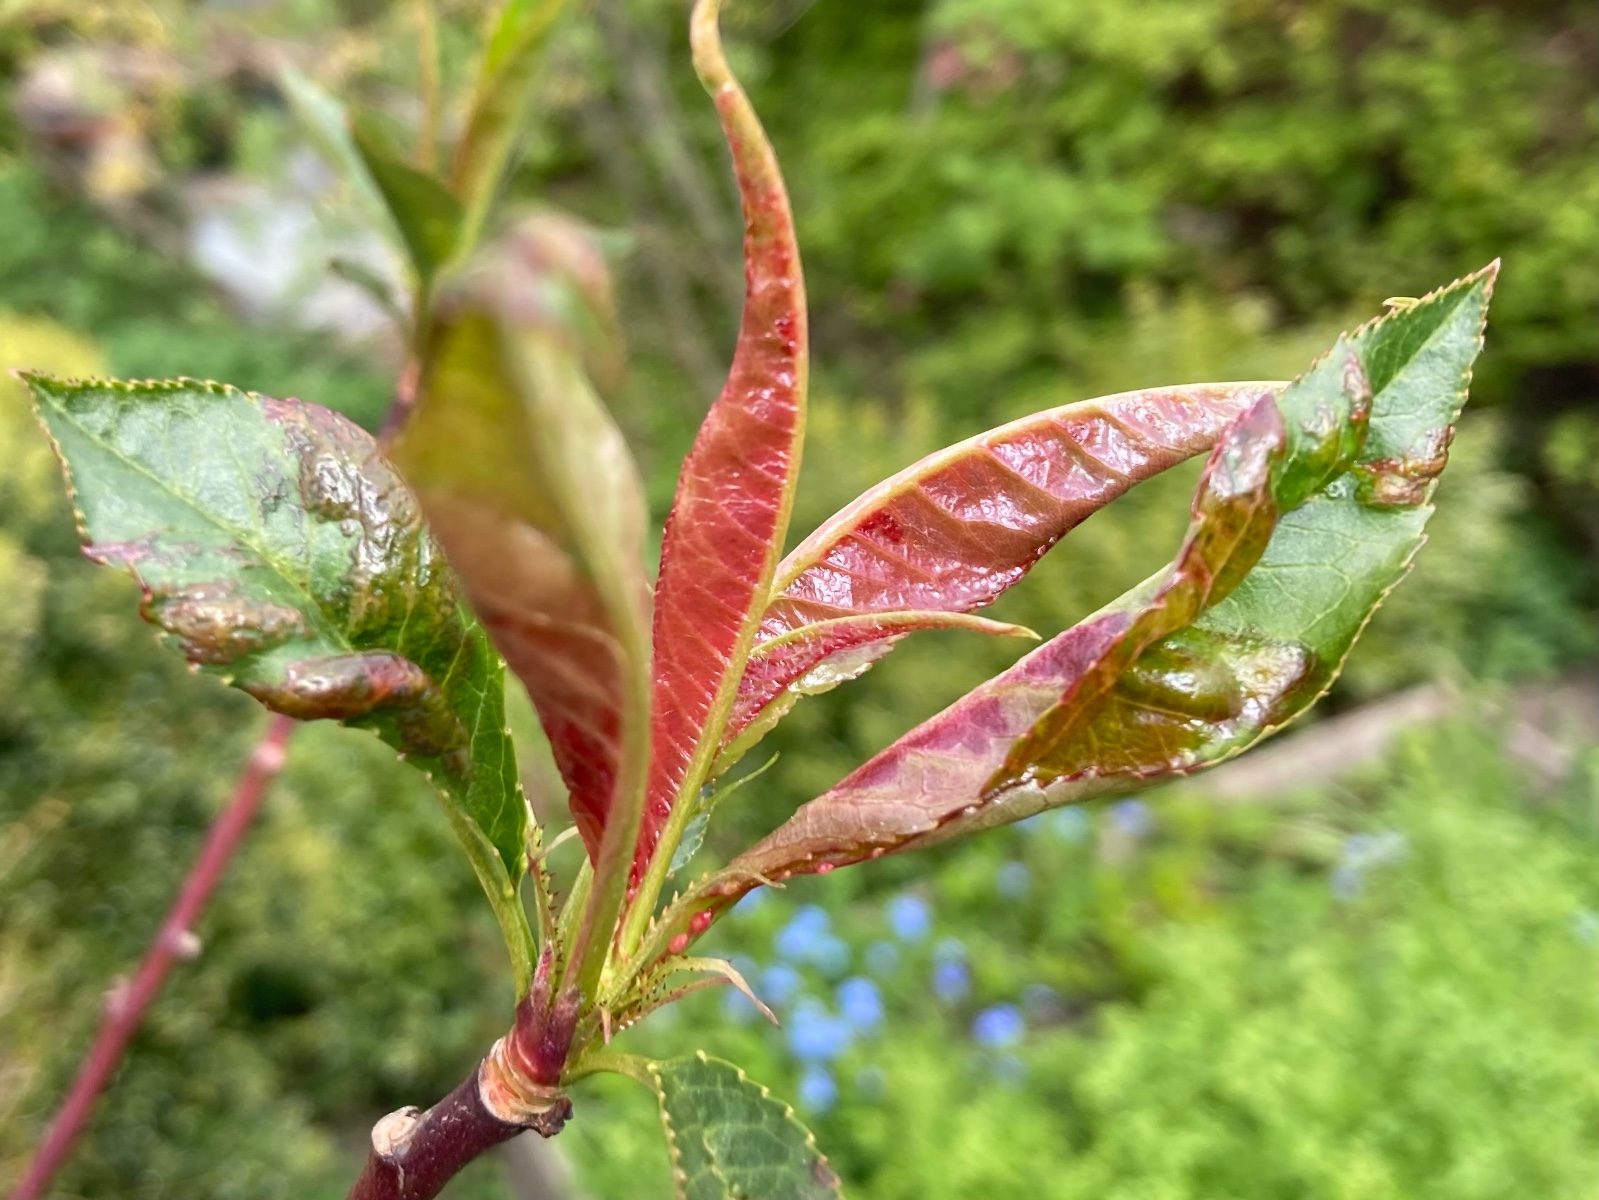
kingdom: Fungi
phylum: Ascomycota
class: Taphrinomycetes
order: Taphrinales
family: Taphrinaceae
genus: Taphrina
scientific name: Taphrina deformans
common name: Peach leaf curl
